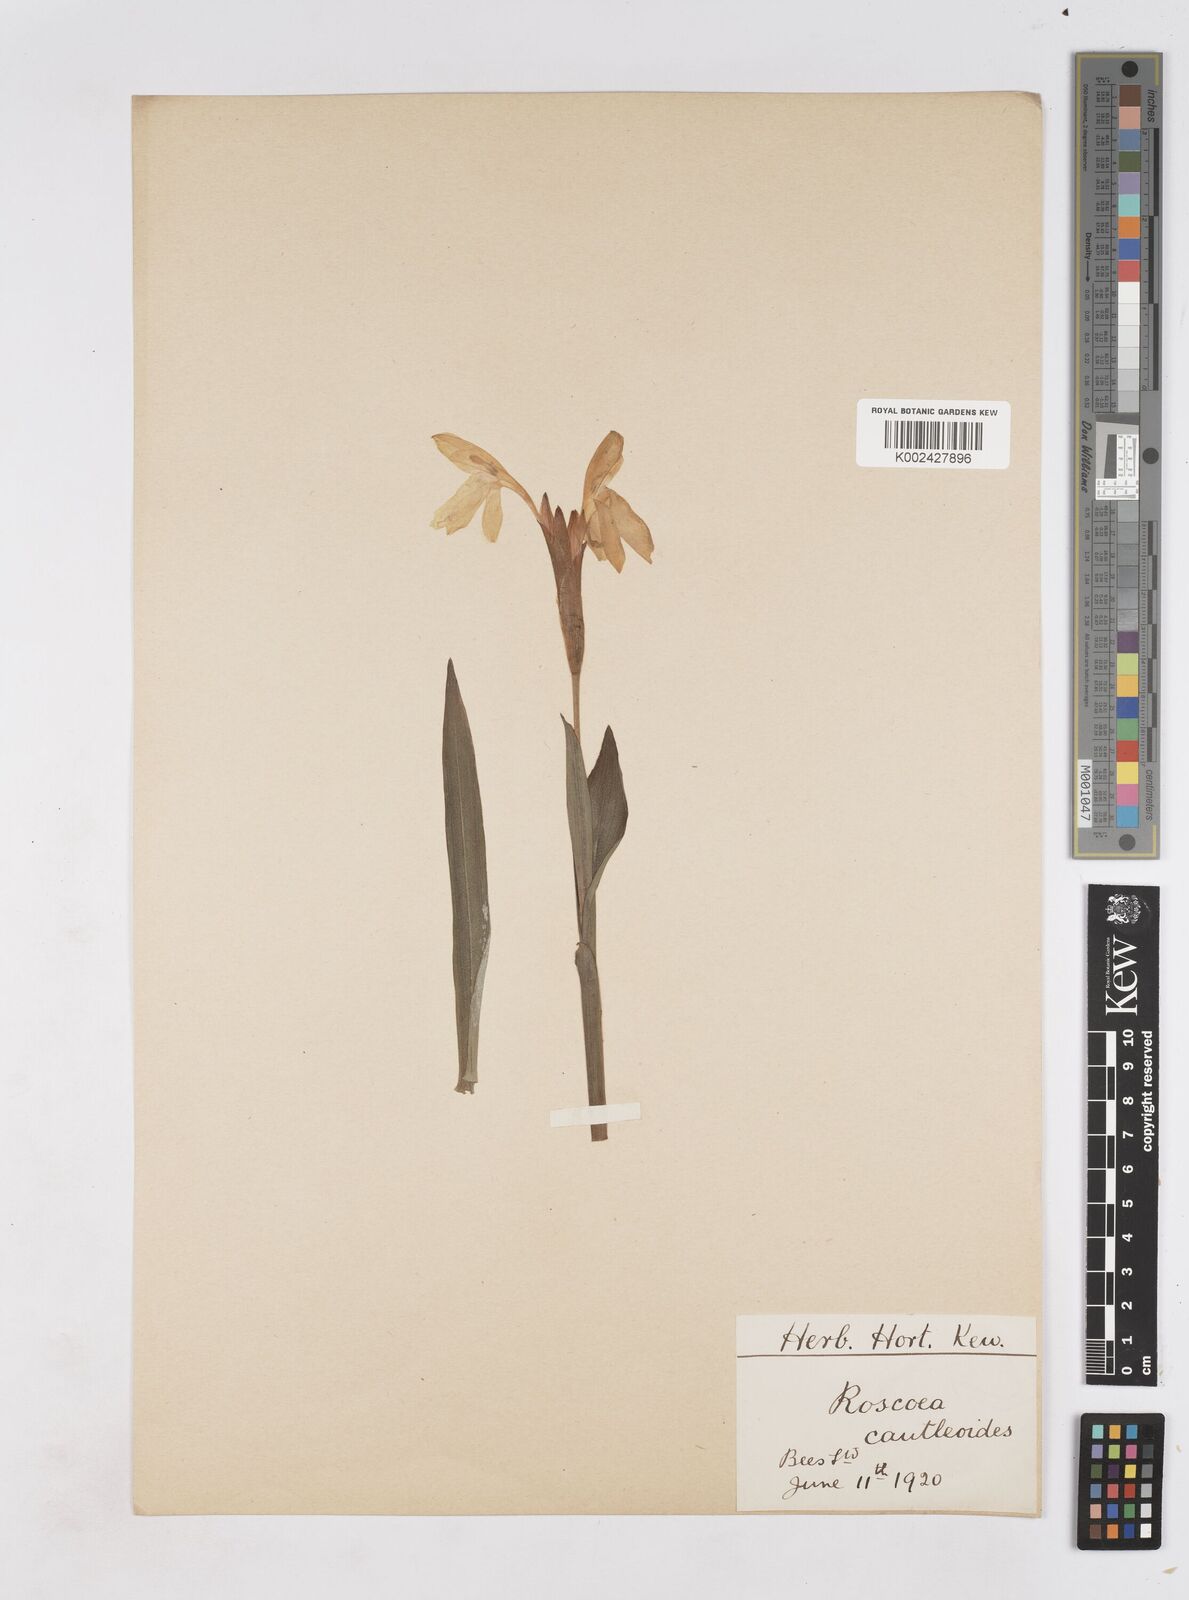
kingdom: Plantae
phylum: Tracheophyta
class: Liliopsida
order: Zingiberales
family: Zingiberaceae
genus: Roscoea
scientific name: Roscoea cautleyoides
